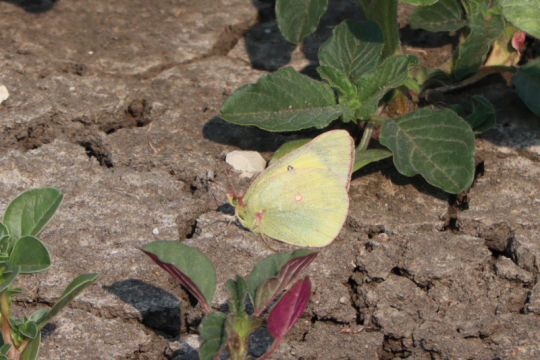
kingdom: Animalia
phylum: Arthropoda
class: Insecta
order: Lepidoptera
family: Pieridae
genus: Colias
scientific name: Colias philodice
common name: Clouded Sulphur
